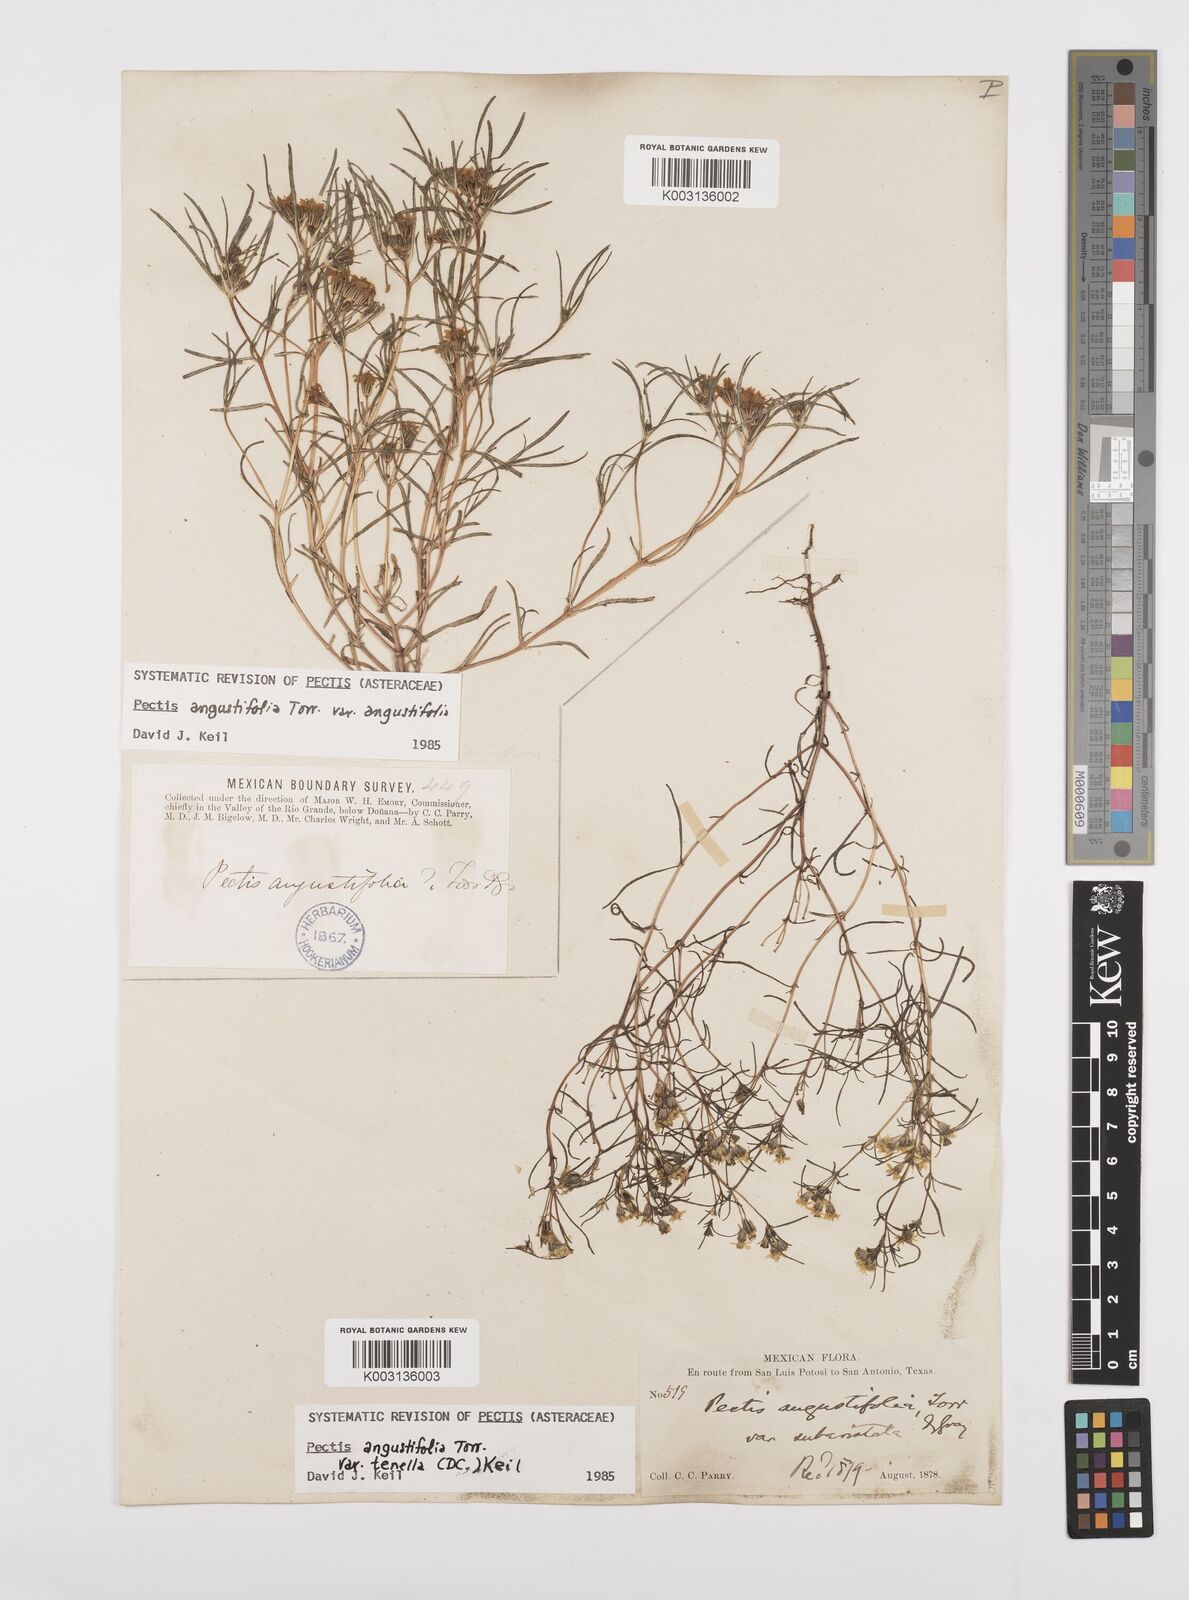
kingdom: Plantae
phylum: Tracheophyta
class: Magnoliopsida
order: Asterales
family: Asteraceae
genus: Pectis
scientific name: Pectis angustifolia
